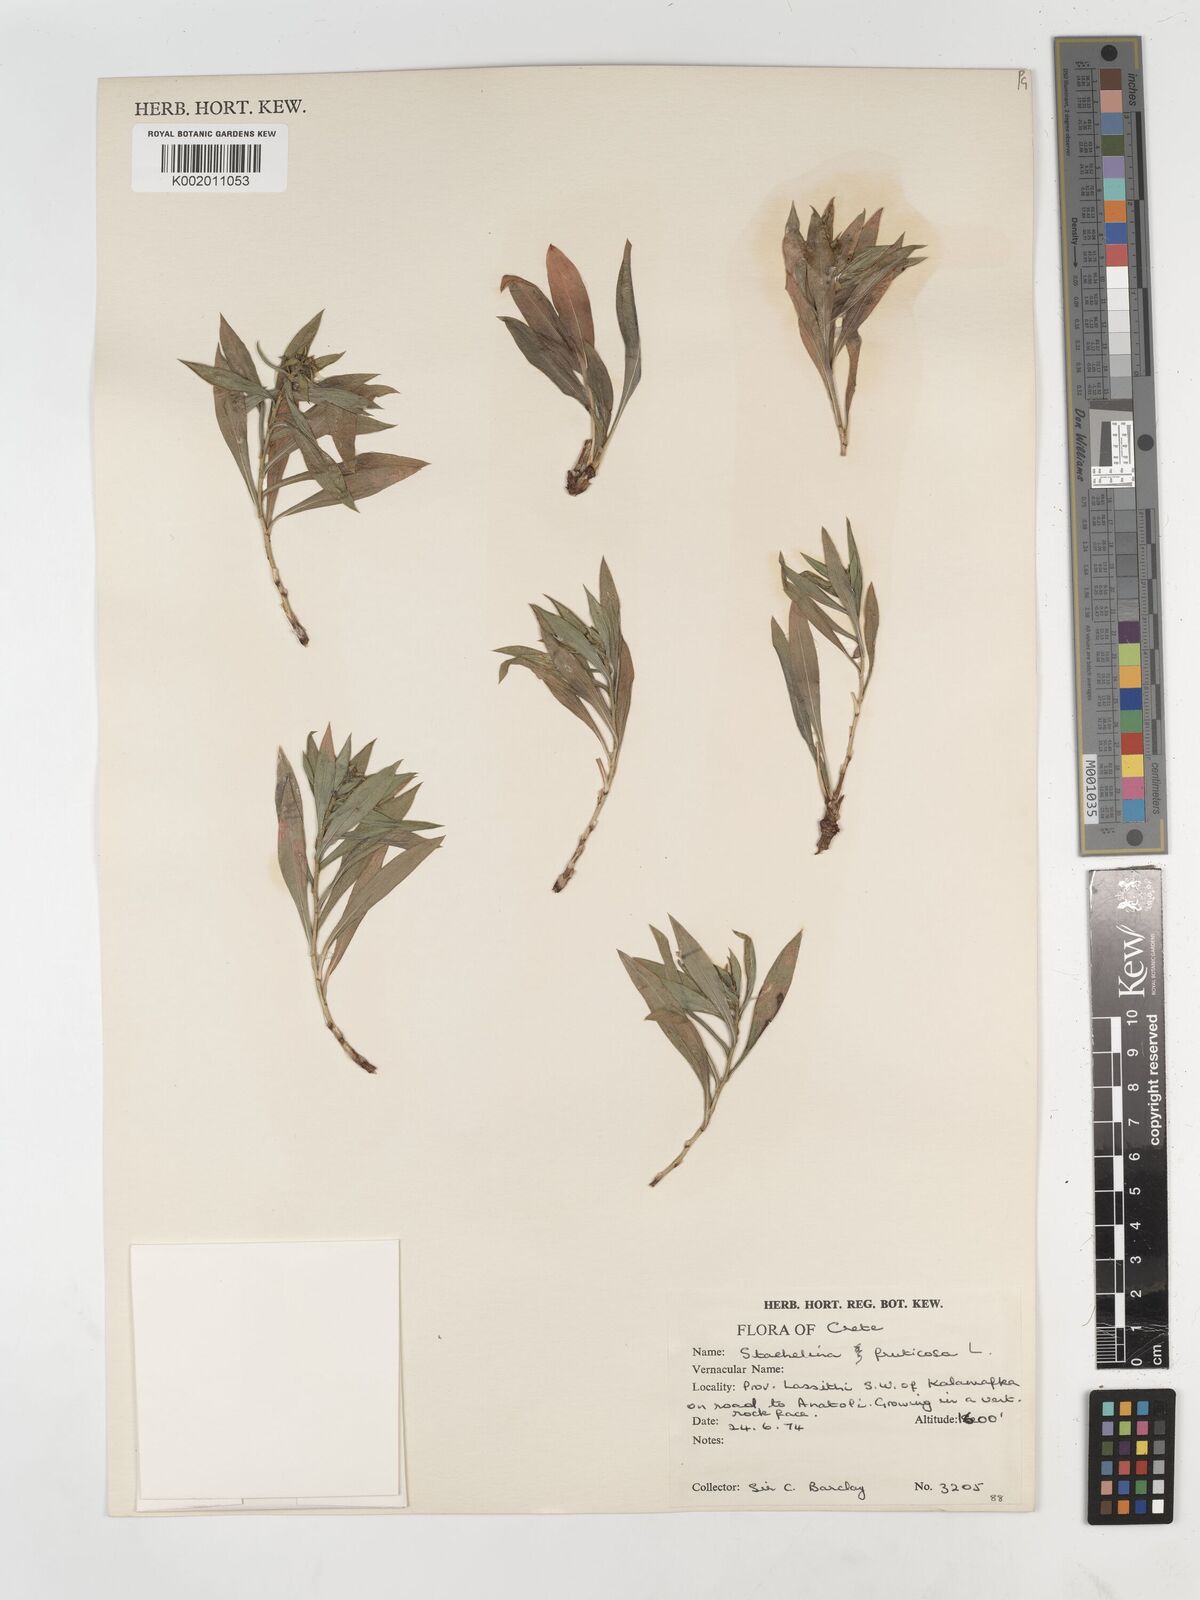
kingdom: Plantae
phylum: Tracheophyta
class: Magnoliopsida
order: Asterales
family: Asteraceae
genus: Hirtellina
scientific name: Hirtellina fruticosa
